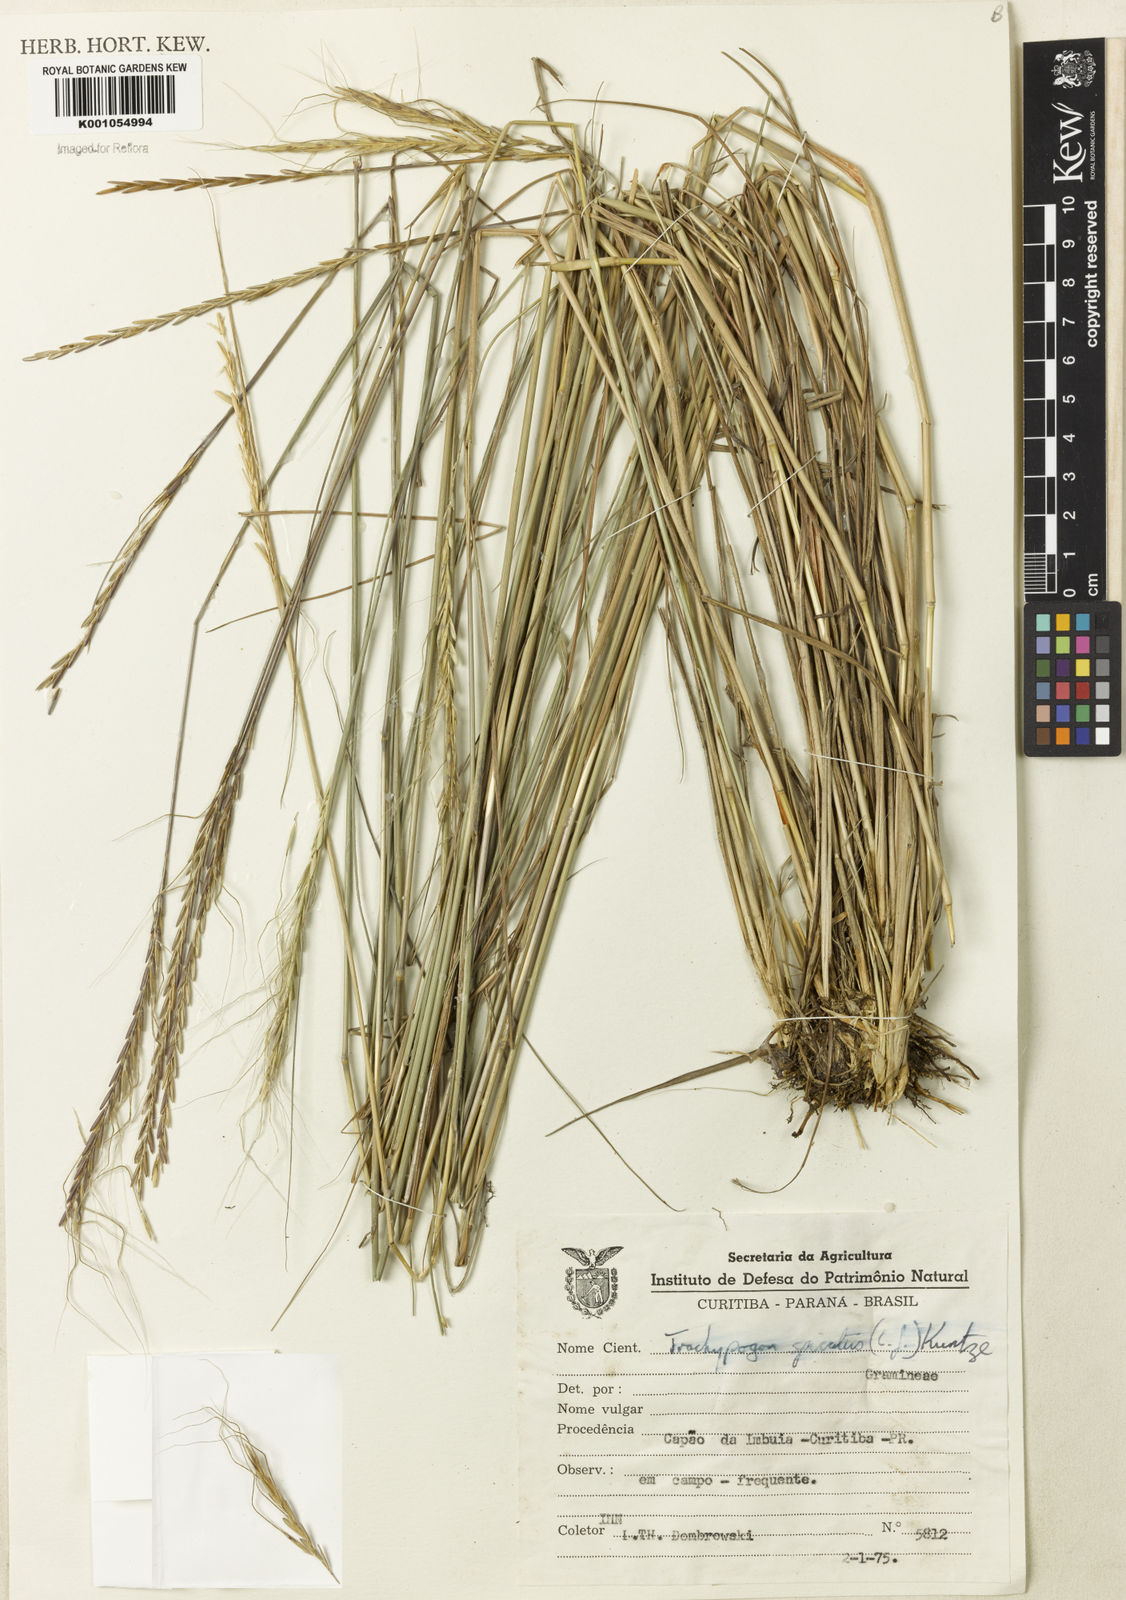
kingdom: Plantae
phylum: Tracheophyta
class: Liliopsida
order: Poales
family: Poaceae
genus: Trachypogon
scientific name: Trachypogon spicatus
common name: Crinkle-awn
